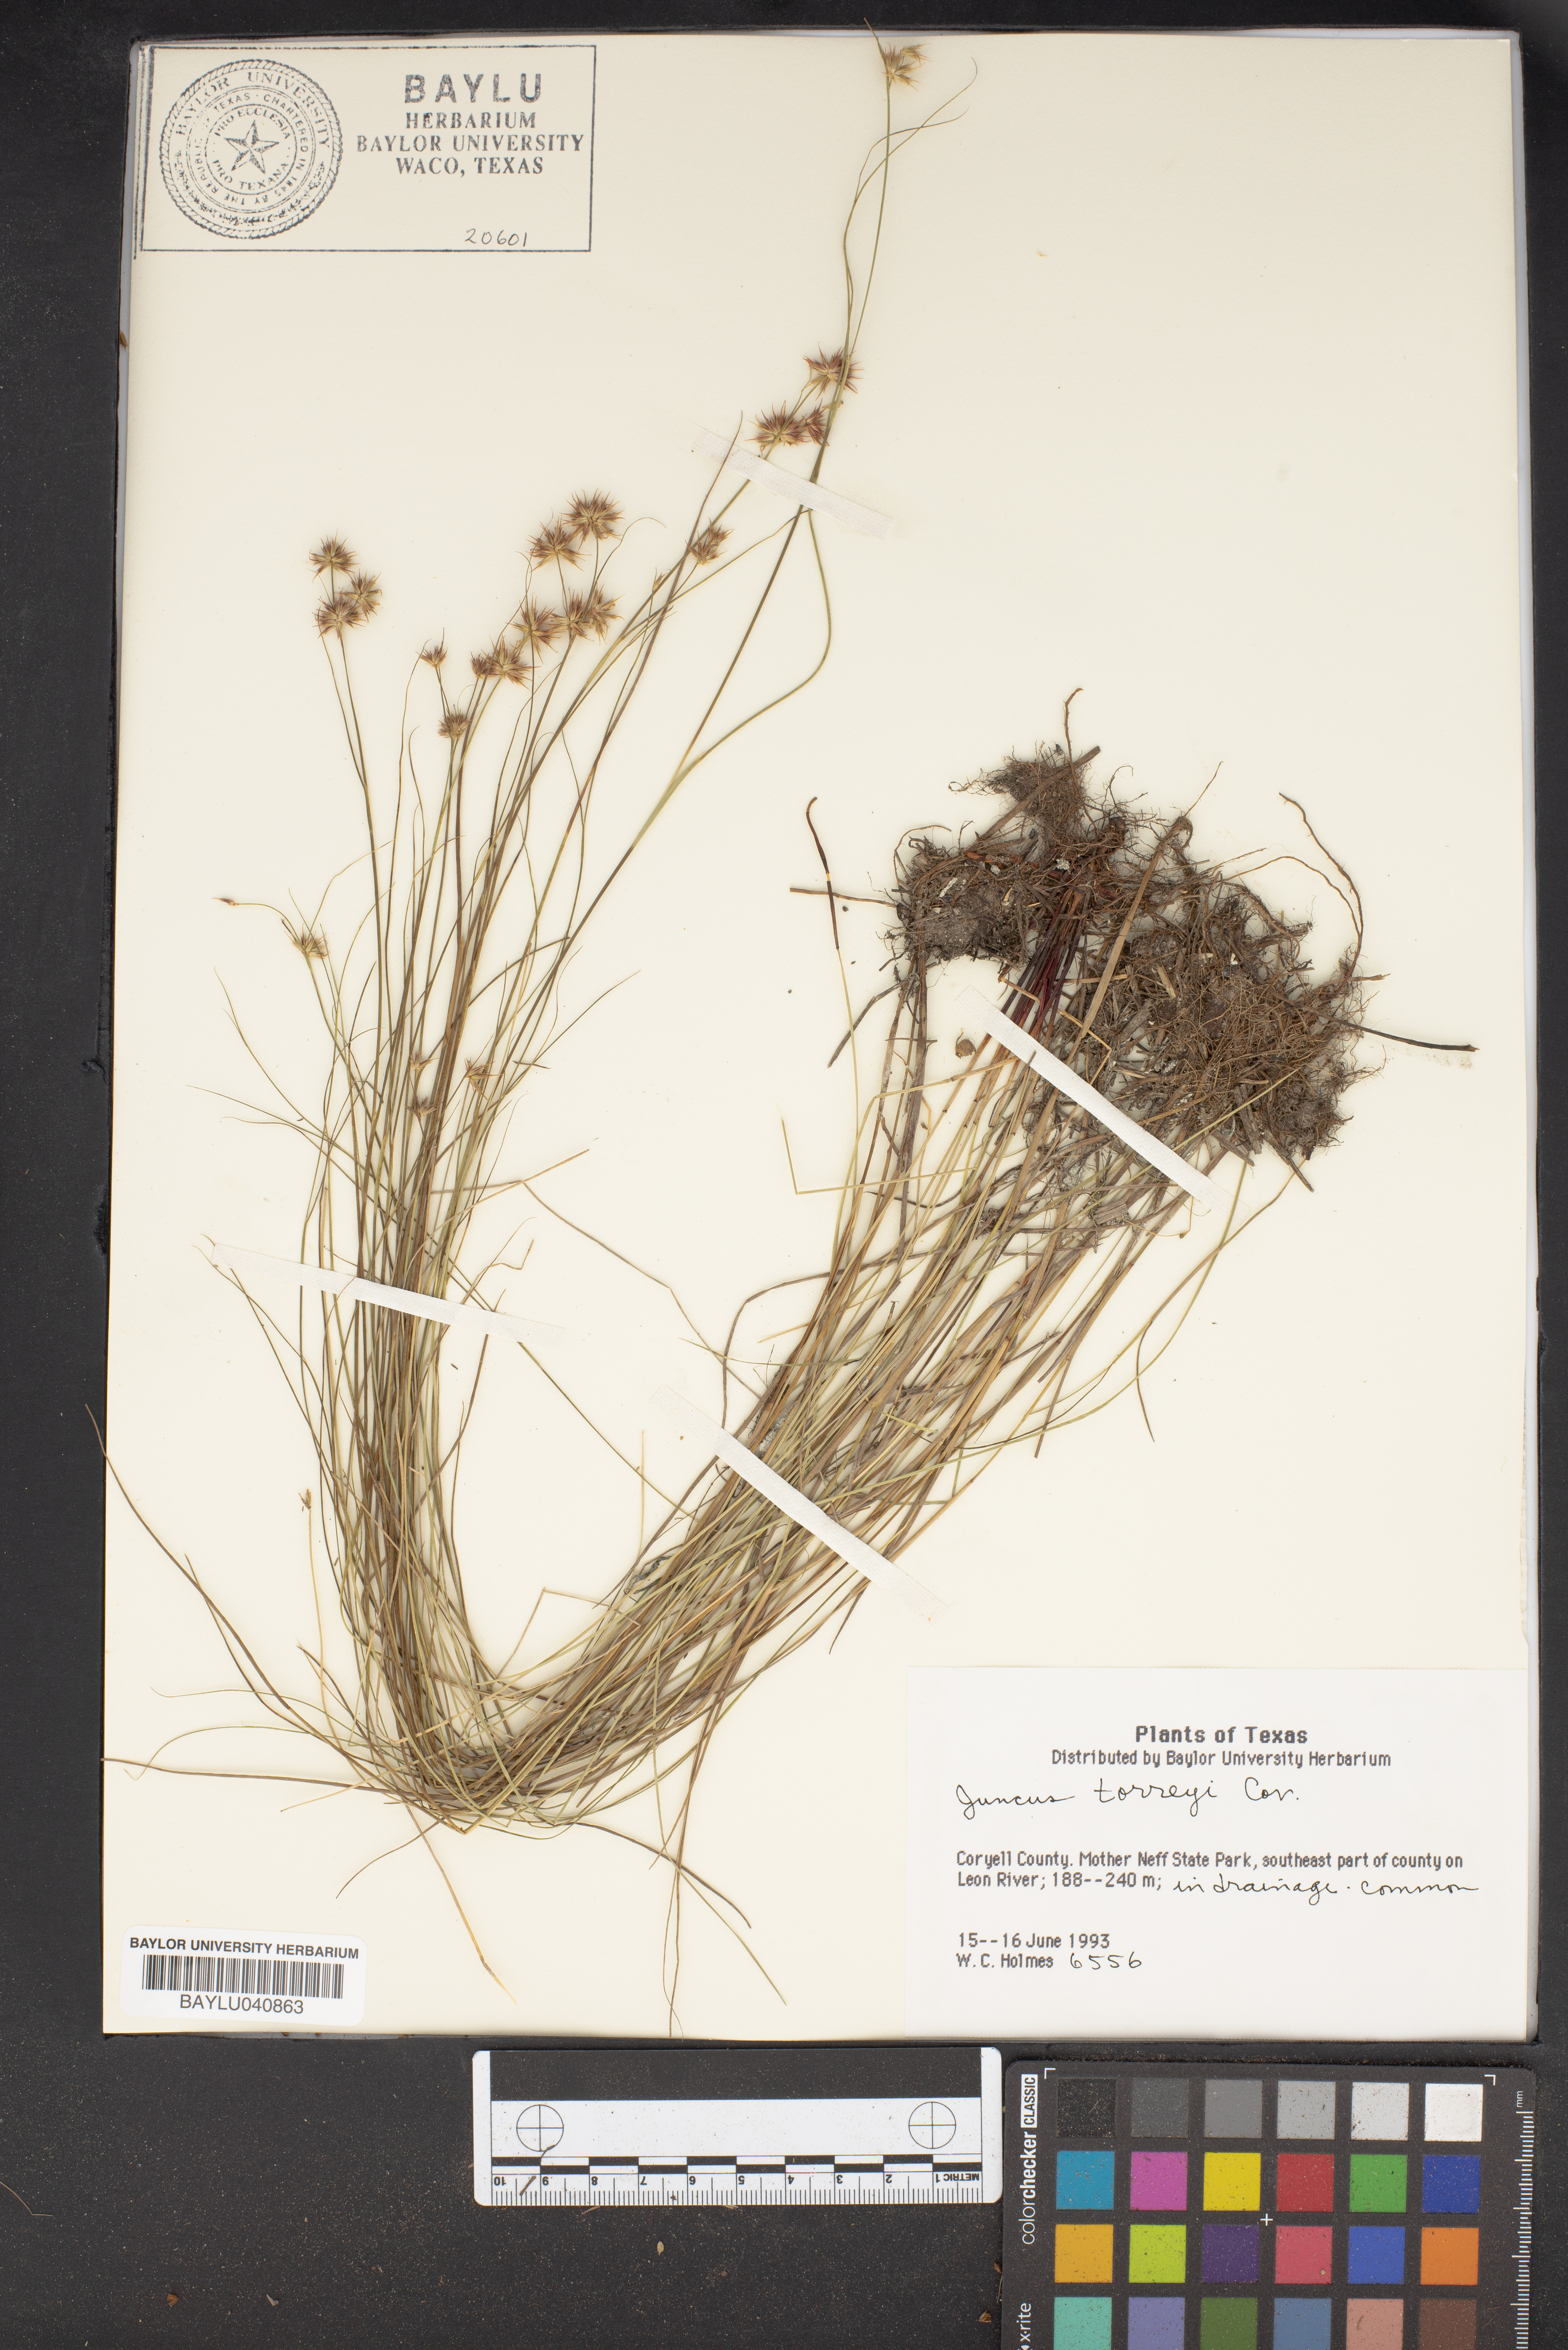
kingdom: Plantae
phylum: Tracheophyta
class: Liliopsida
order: Poales
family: Juncaceae
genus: Juncus
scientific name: Juncus torreyi
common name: Torrey's rush
